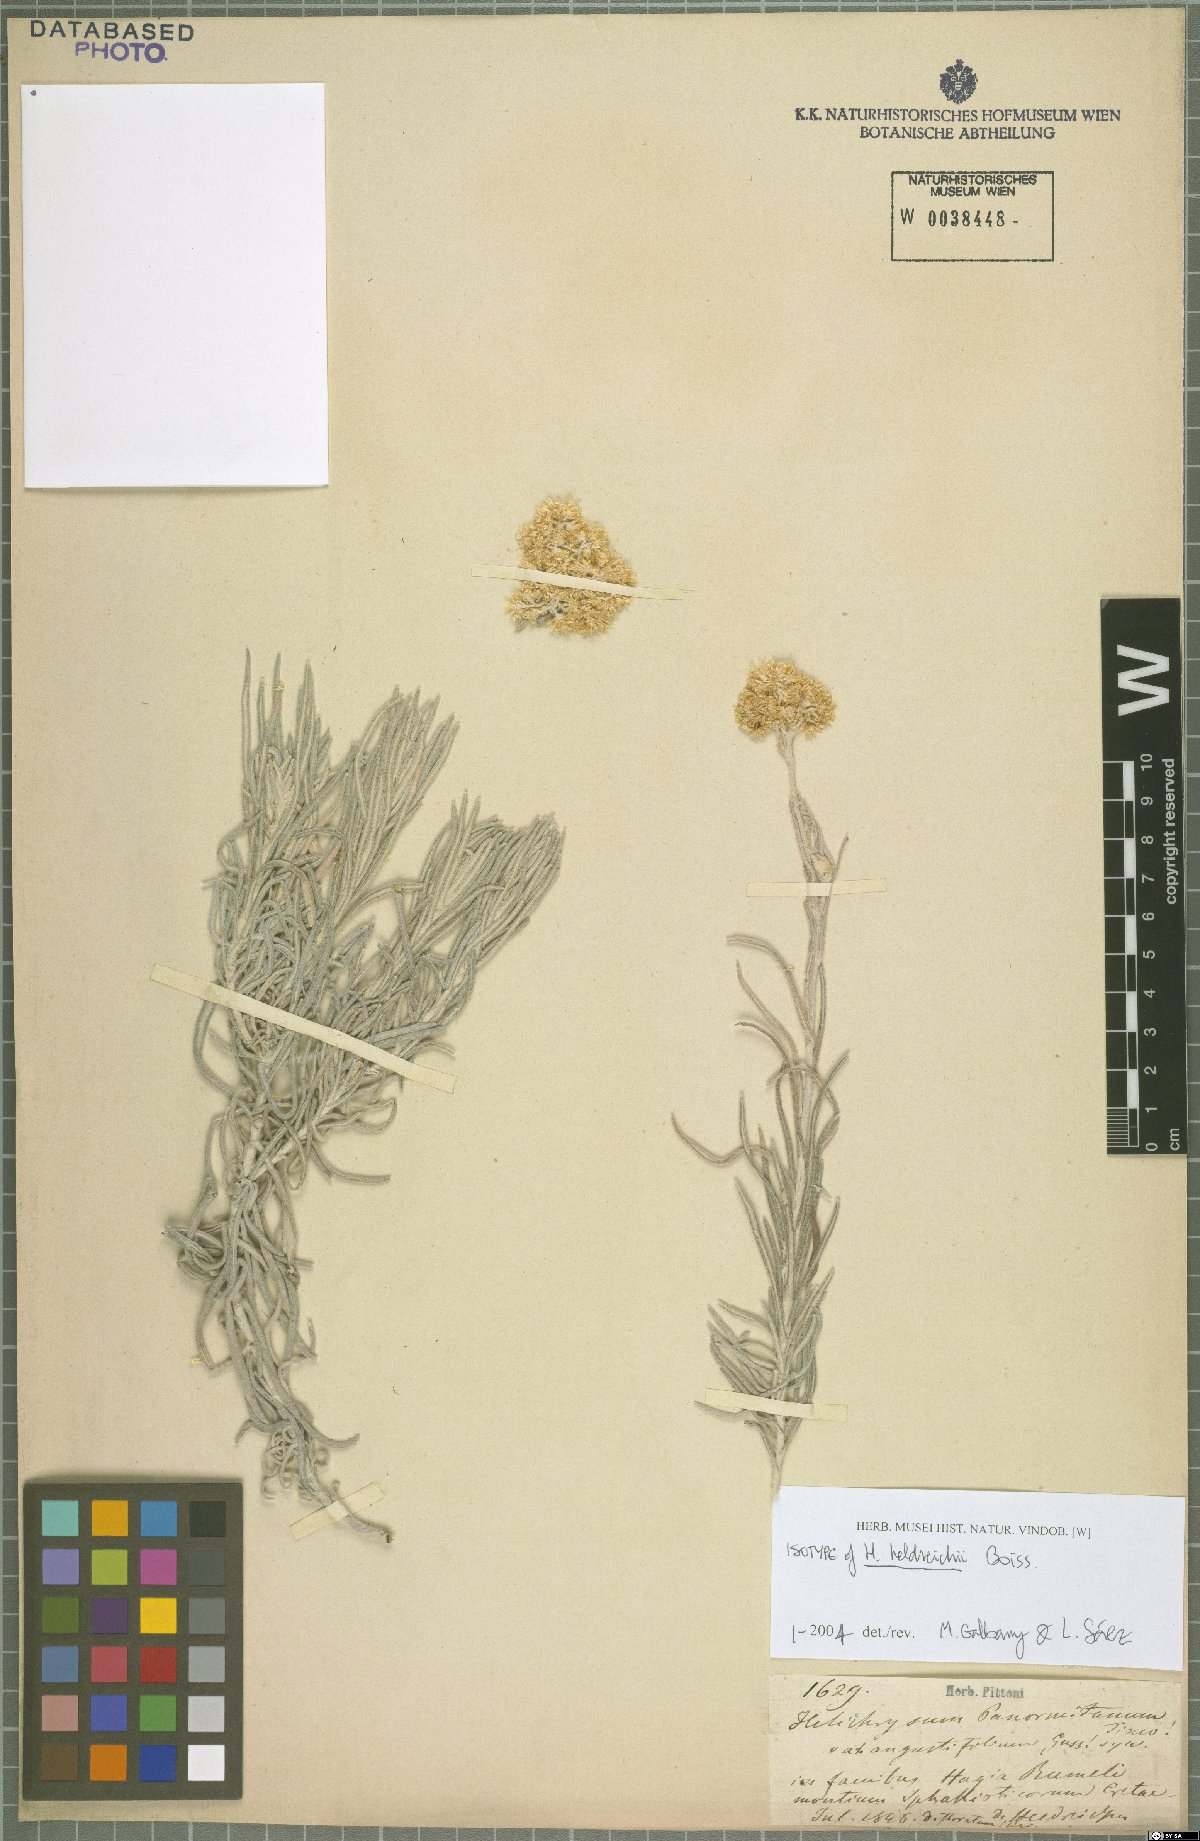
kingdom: Plantae
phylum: Tracheophyta
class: Magnoliopsida
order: Asterales
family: Asteraceae
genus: Helichrysum
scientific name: Helichrysum heldreichii
